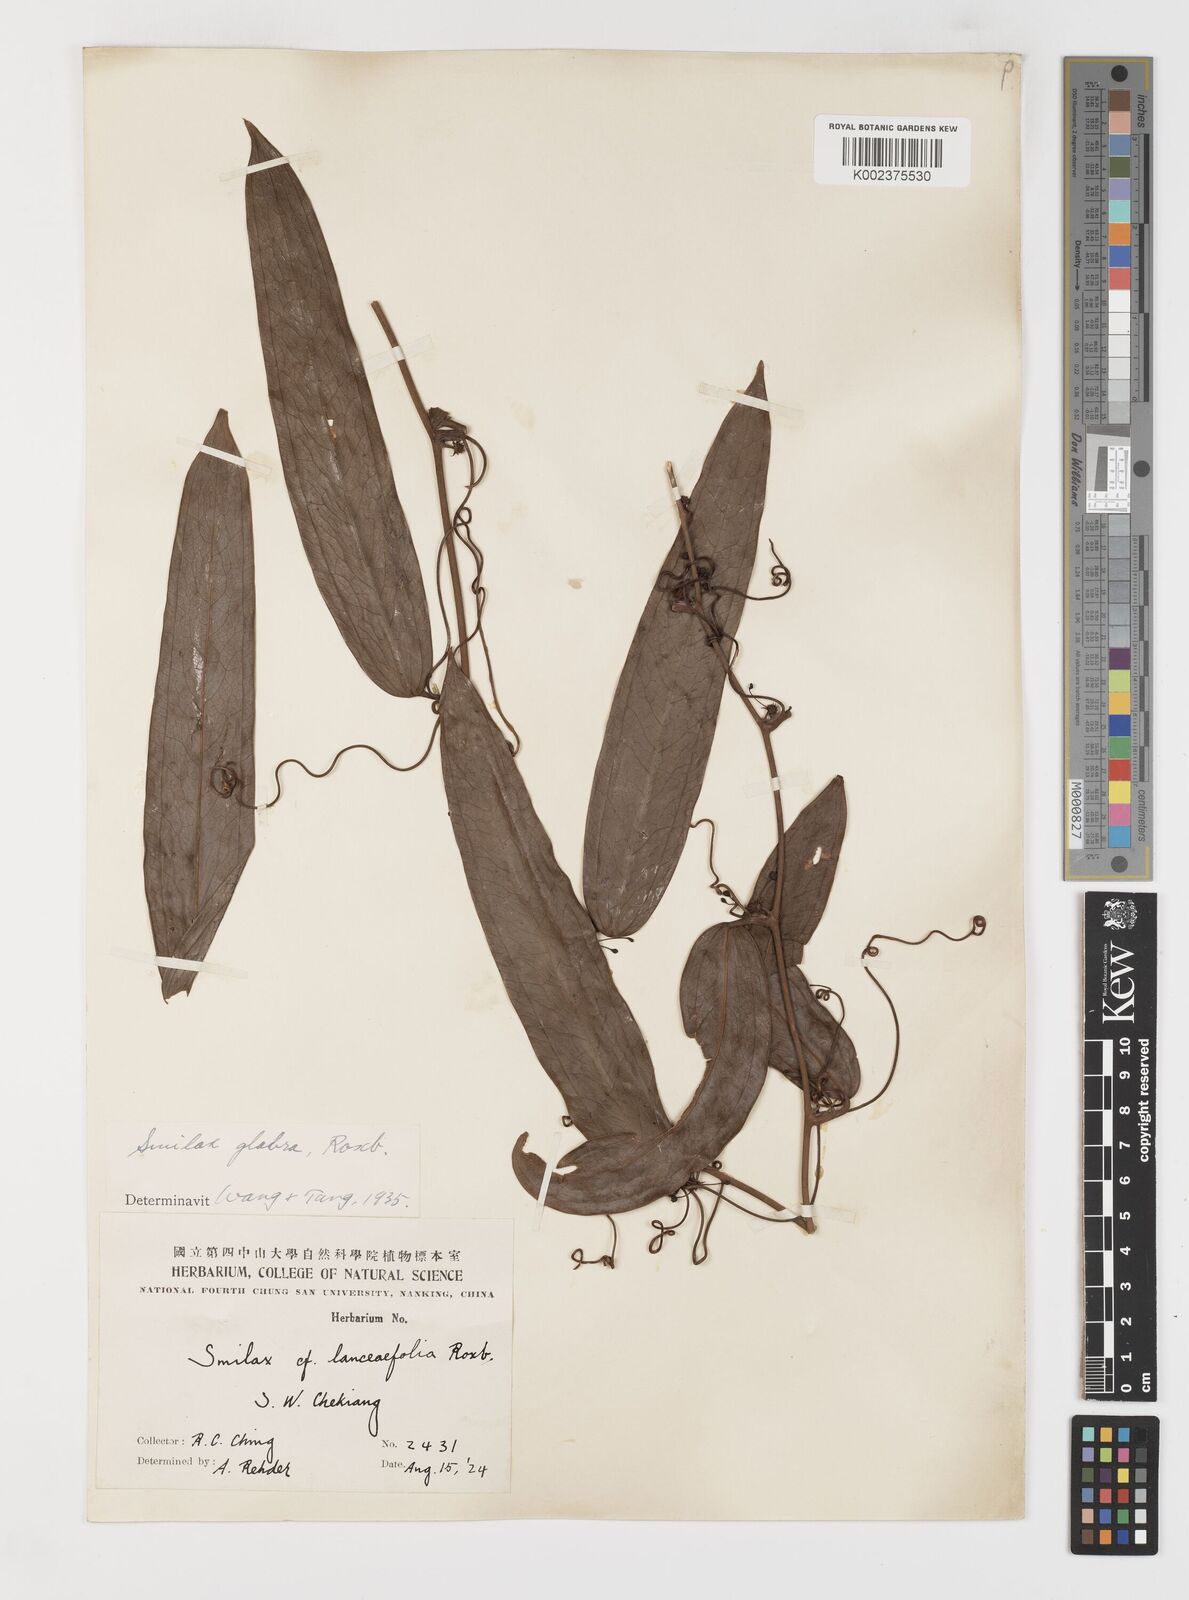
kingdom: Plantae
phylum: Tracheophyta
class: Liliopsida
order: Liliales
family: Smilacaceae
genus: Smilax
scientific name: Smilax laevis
